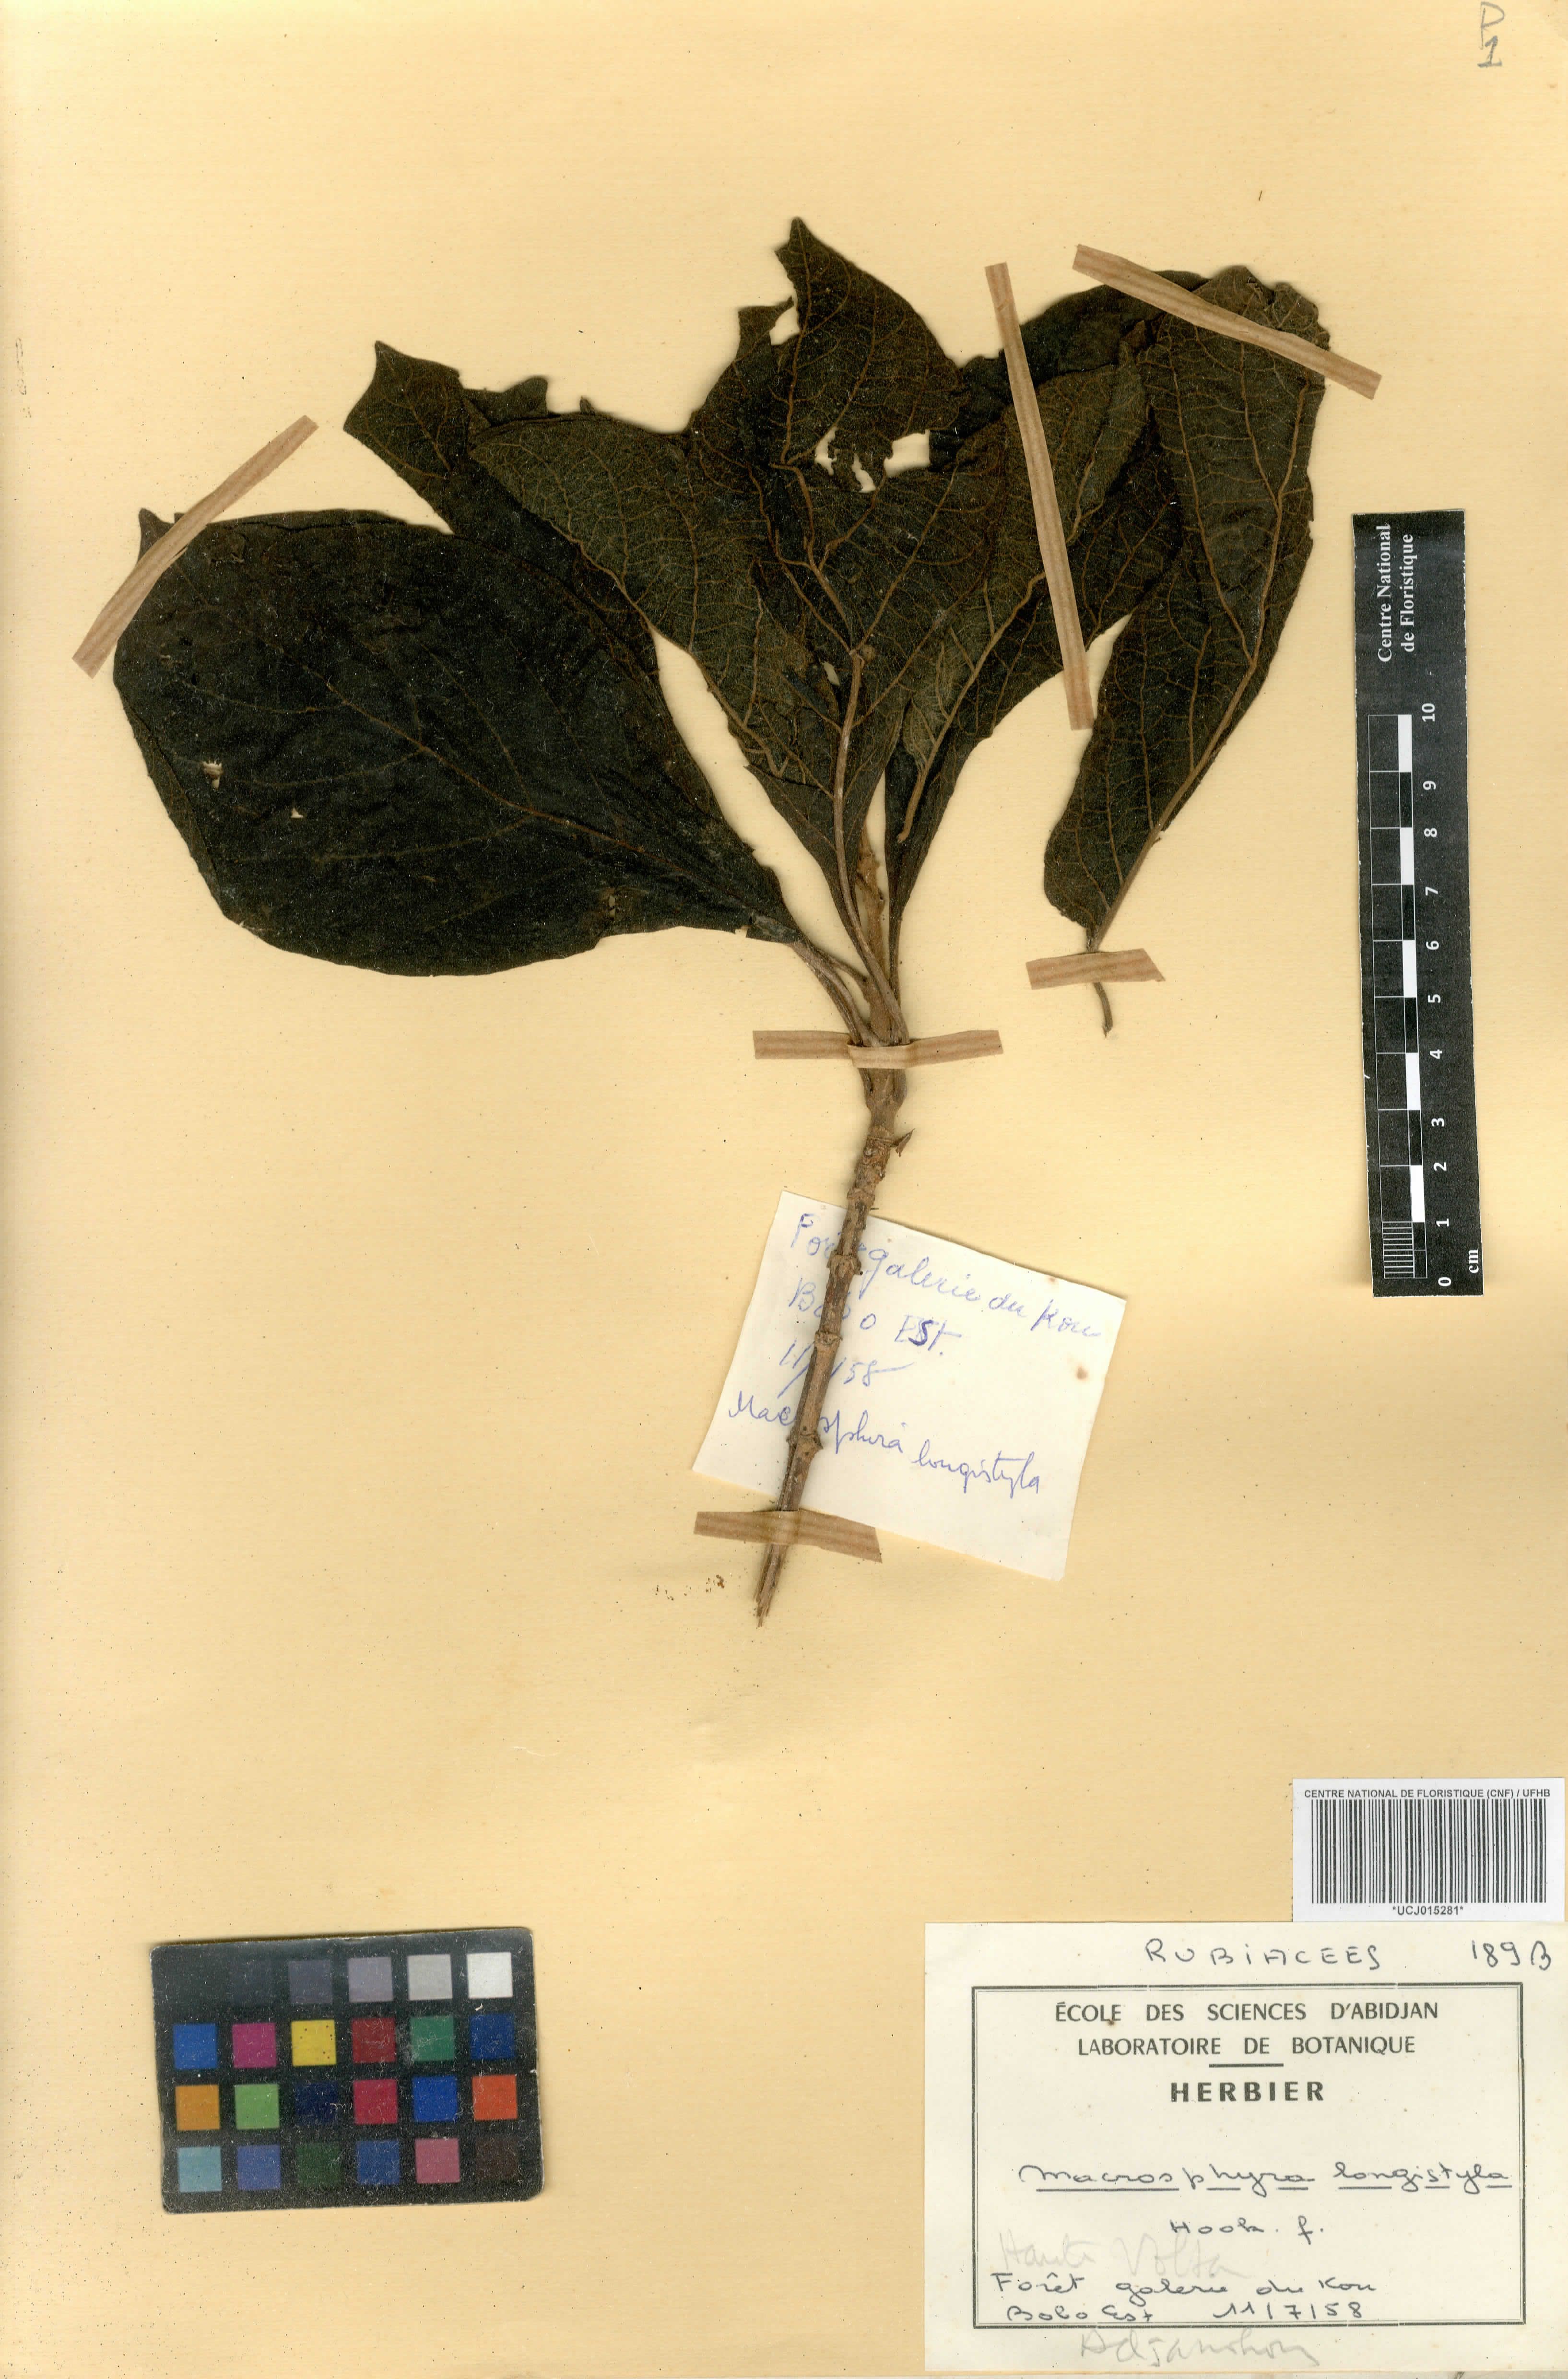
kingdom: Plantae
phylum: Tracheophyta
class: Magnoliopsida
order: Gentianales
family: Rubiaceae
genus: Macrosphyra
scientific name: Macrosphyra longistyla
